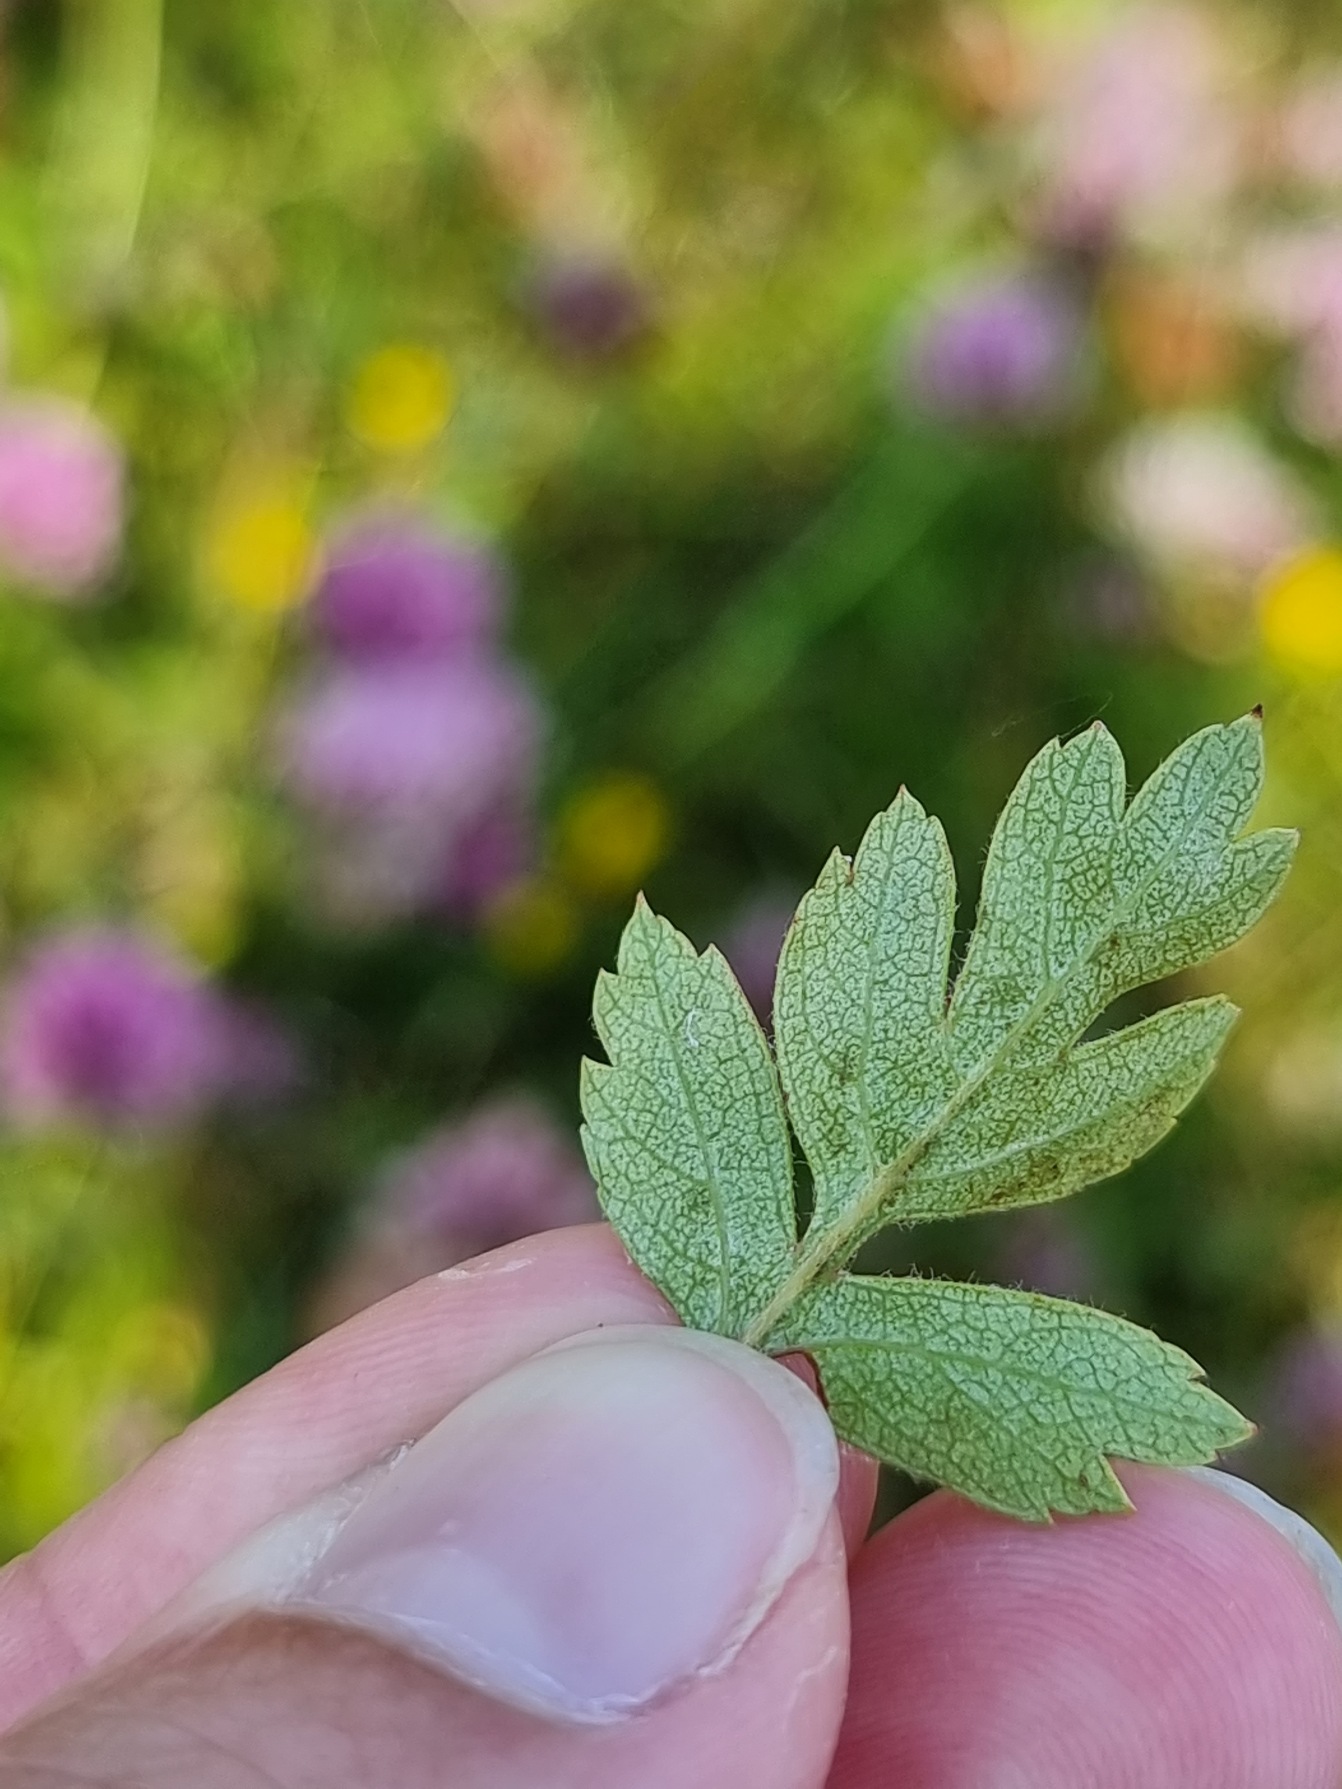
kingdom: Plantae
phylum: Tracheophyta
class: Magnoliopsida
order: Rosales
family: Rosaceae
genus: Crataegus
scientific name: Crataegus monogyna
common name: Engriflet hvidtjørn
